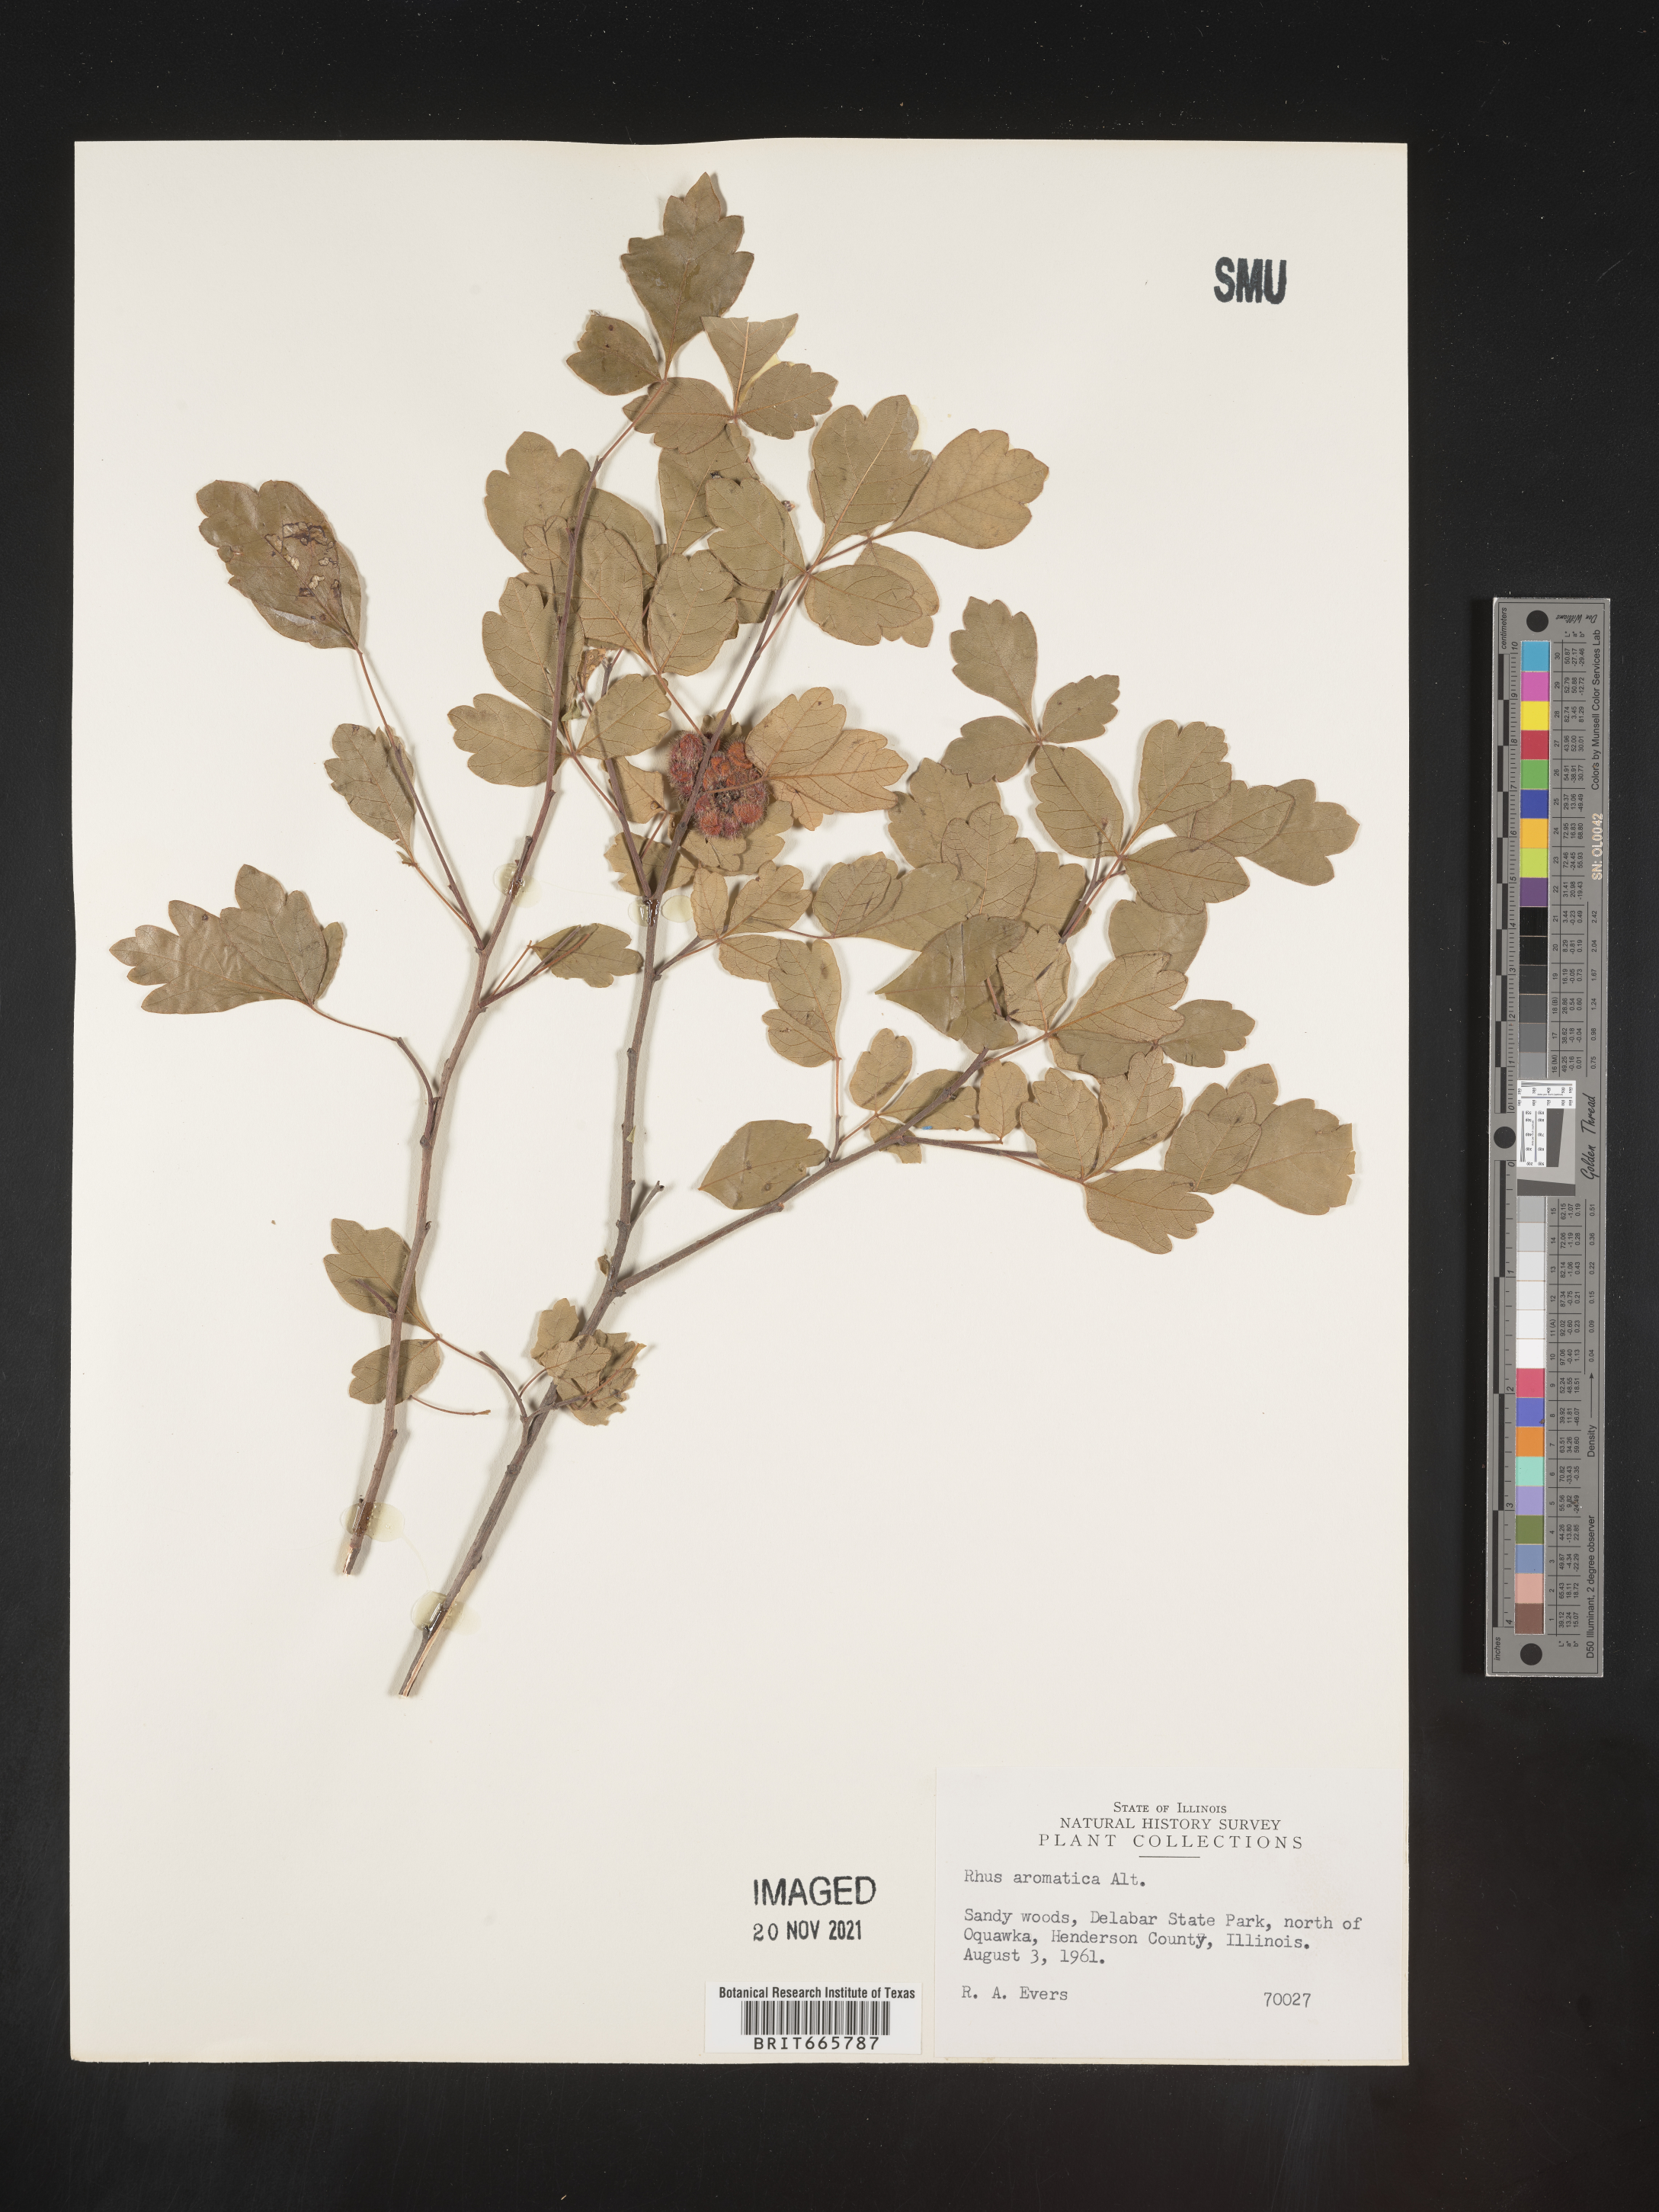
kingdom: Plantae
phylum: Tracheophyta
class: Magnoliopsida
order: Sapindales
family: Anacardiaceae
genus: Rhus
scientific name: Rhus aromatica
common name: Aromatic sumac
